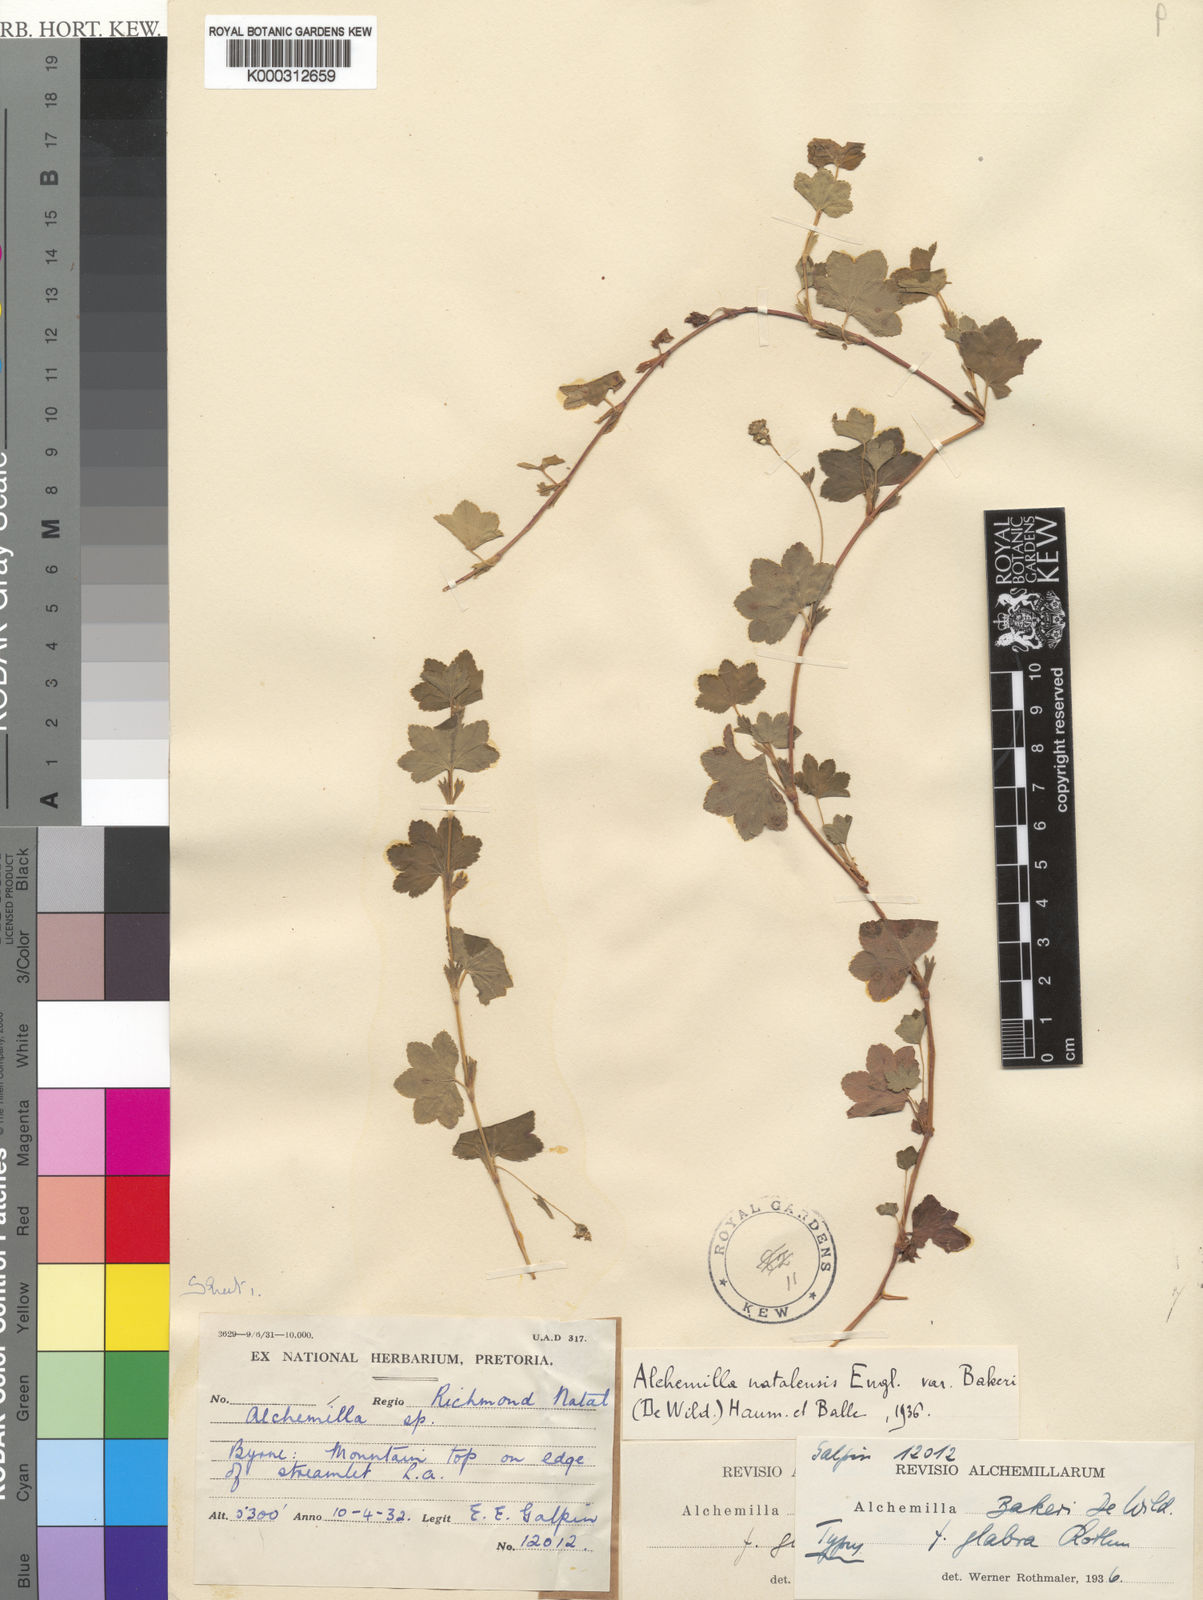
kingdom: Plantae
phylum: Tracheophyta
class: Magnoliopsida
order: Rosales
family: Rosaceae
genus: Alchemilla
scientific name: Alchemilla bakeri
